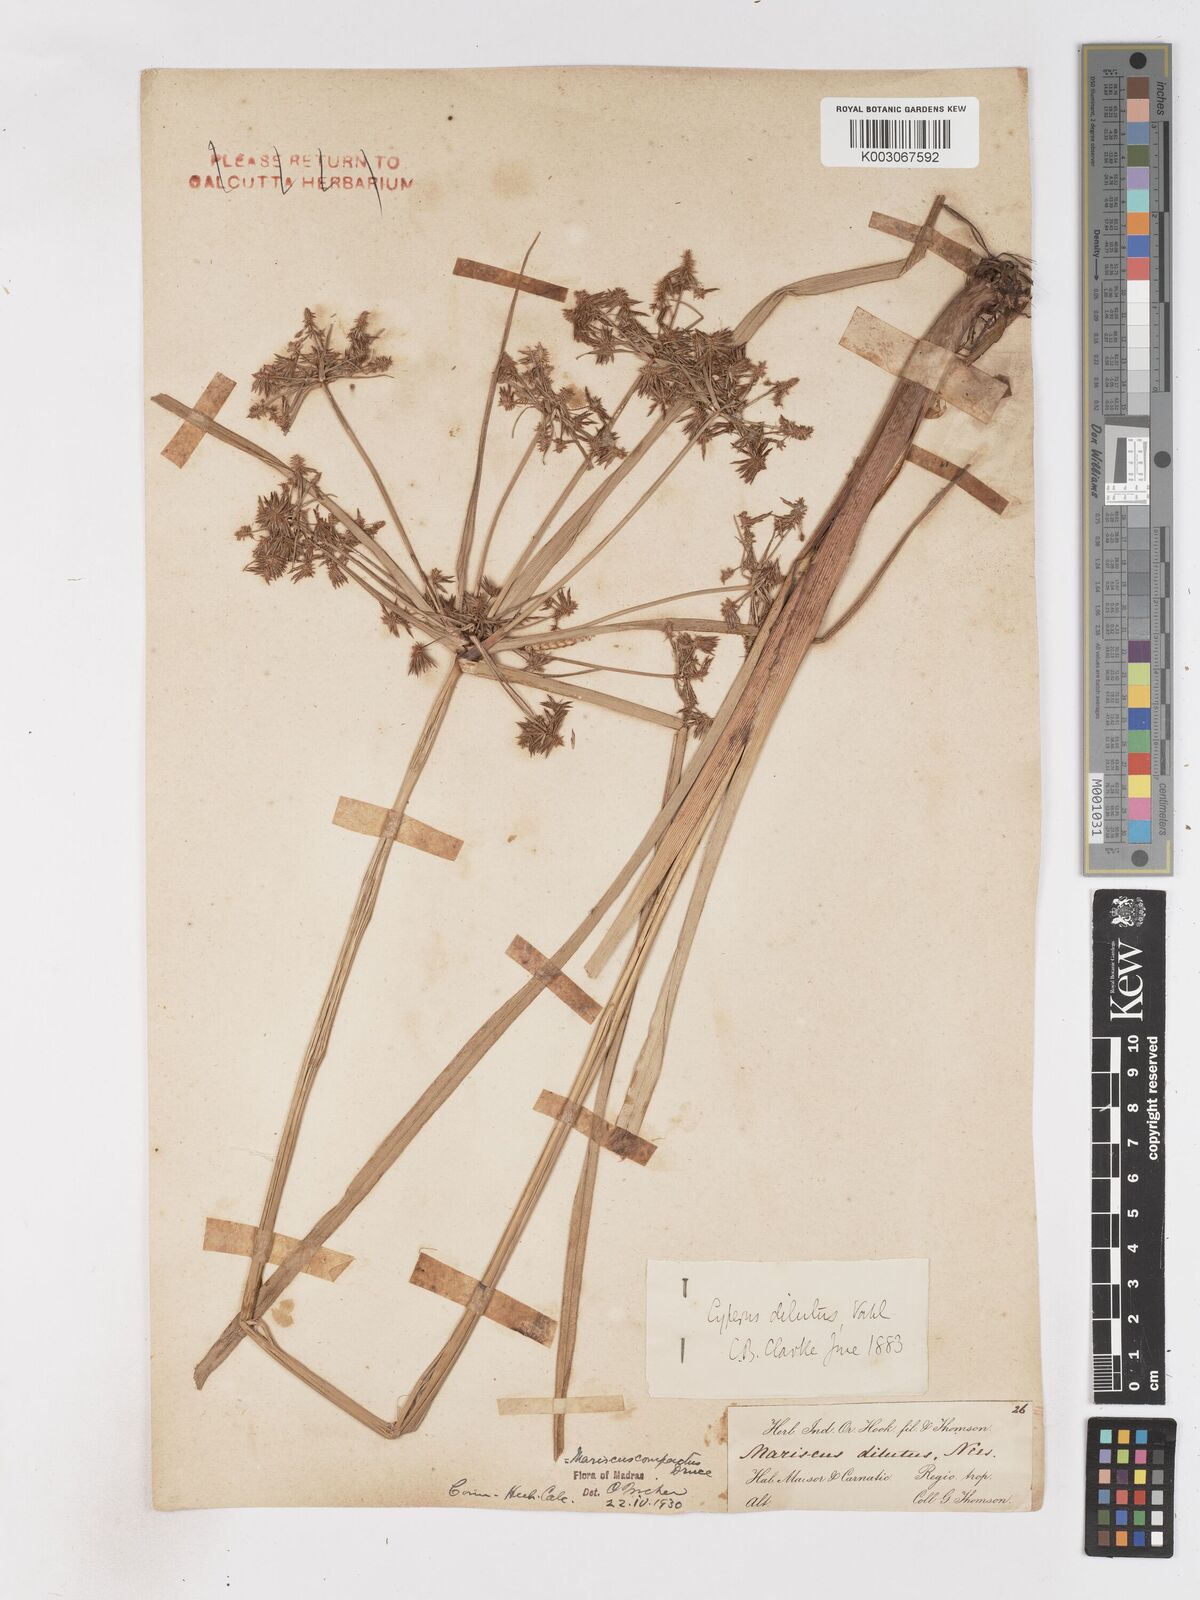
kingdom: Plantae
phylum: Tracheophyta
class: Liliopsida
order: Poales
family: Cyperaceae
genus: Cyperus
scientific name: Cyperus compactus
